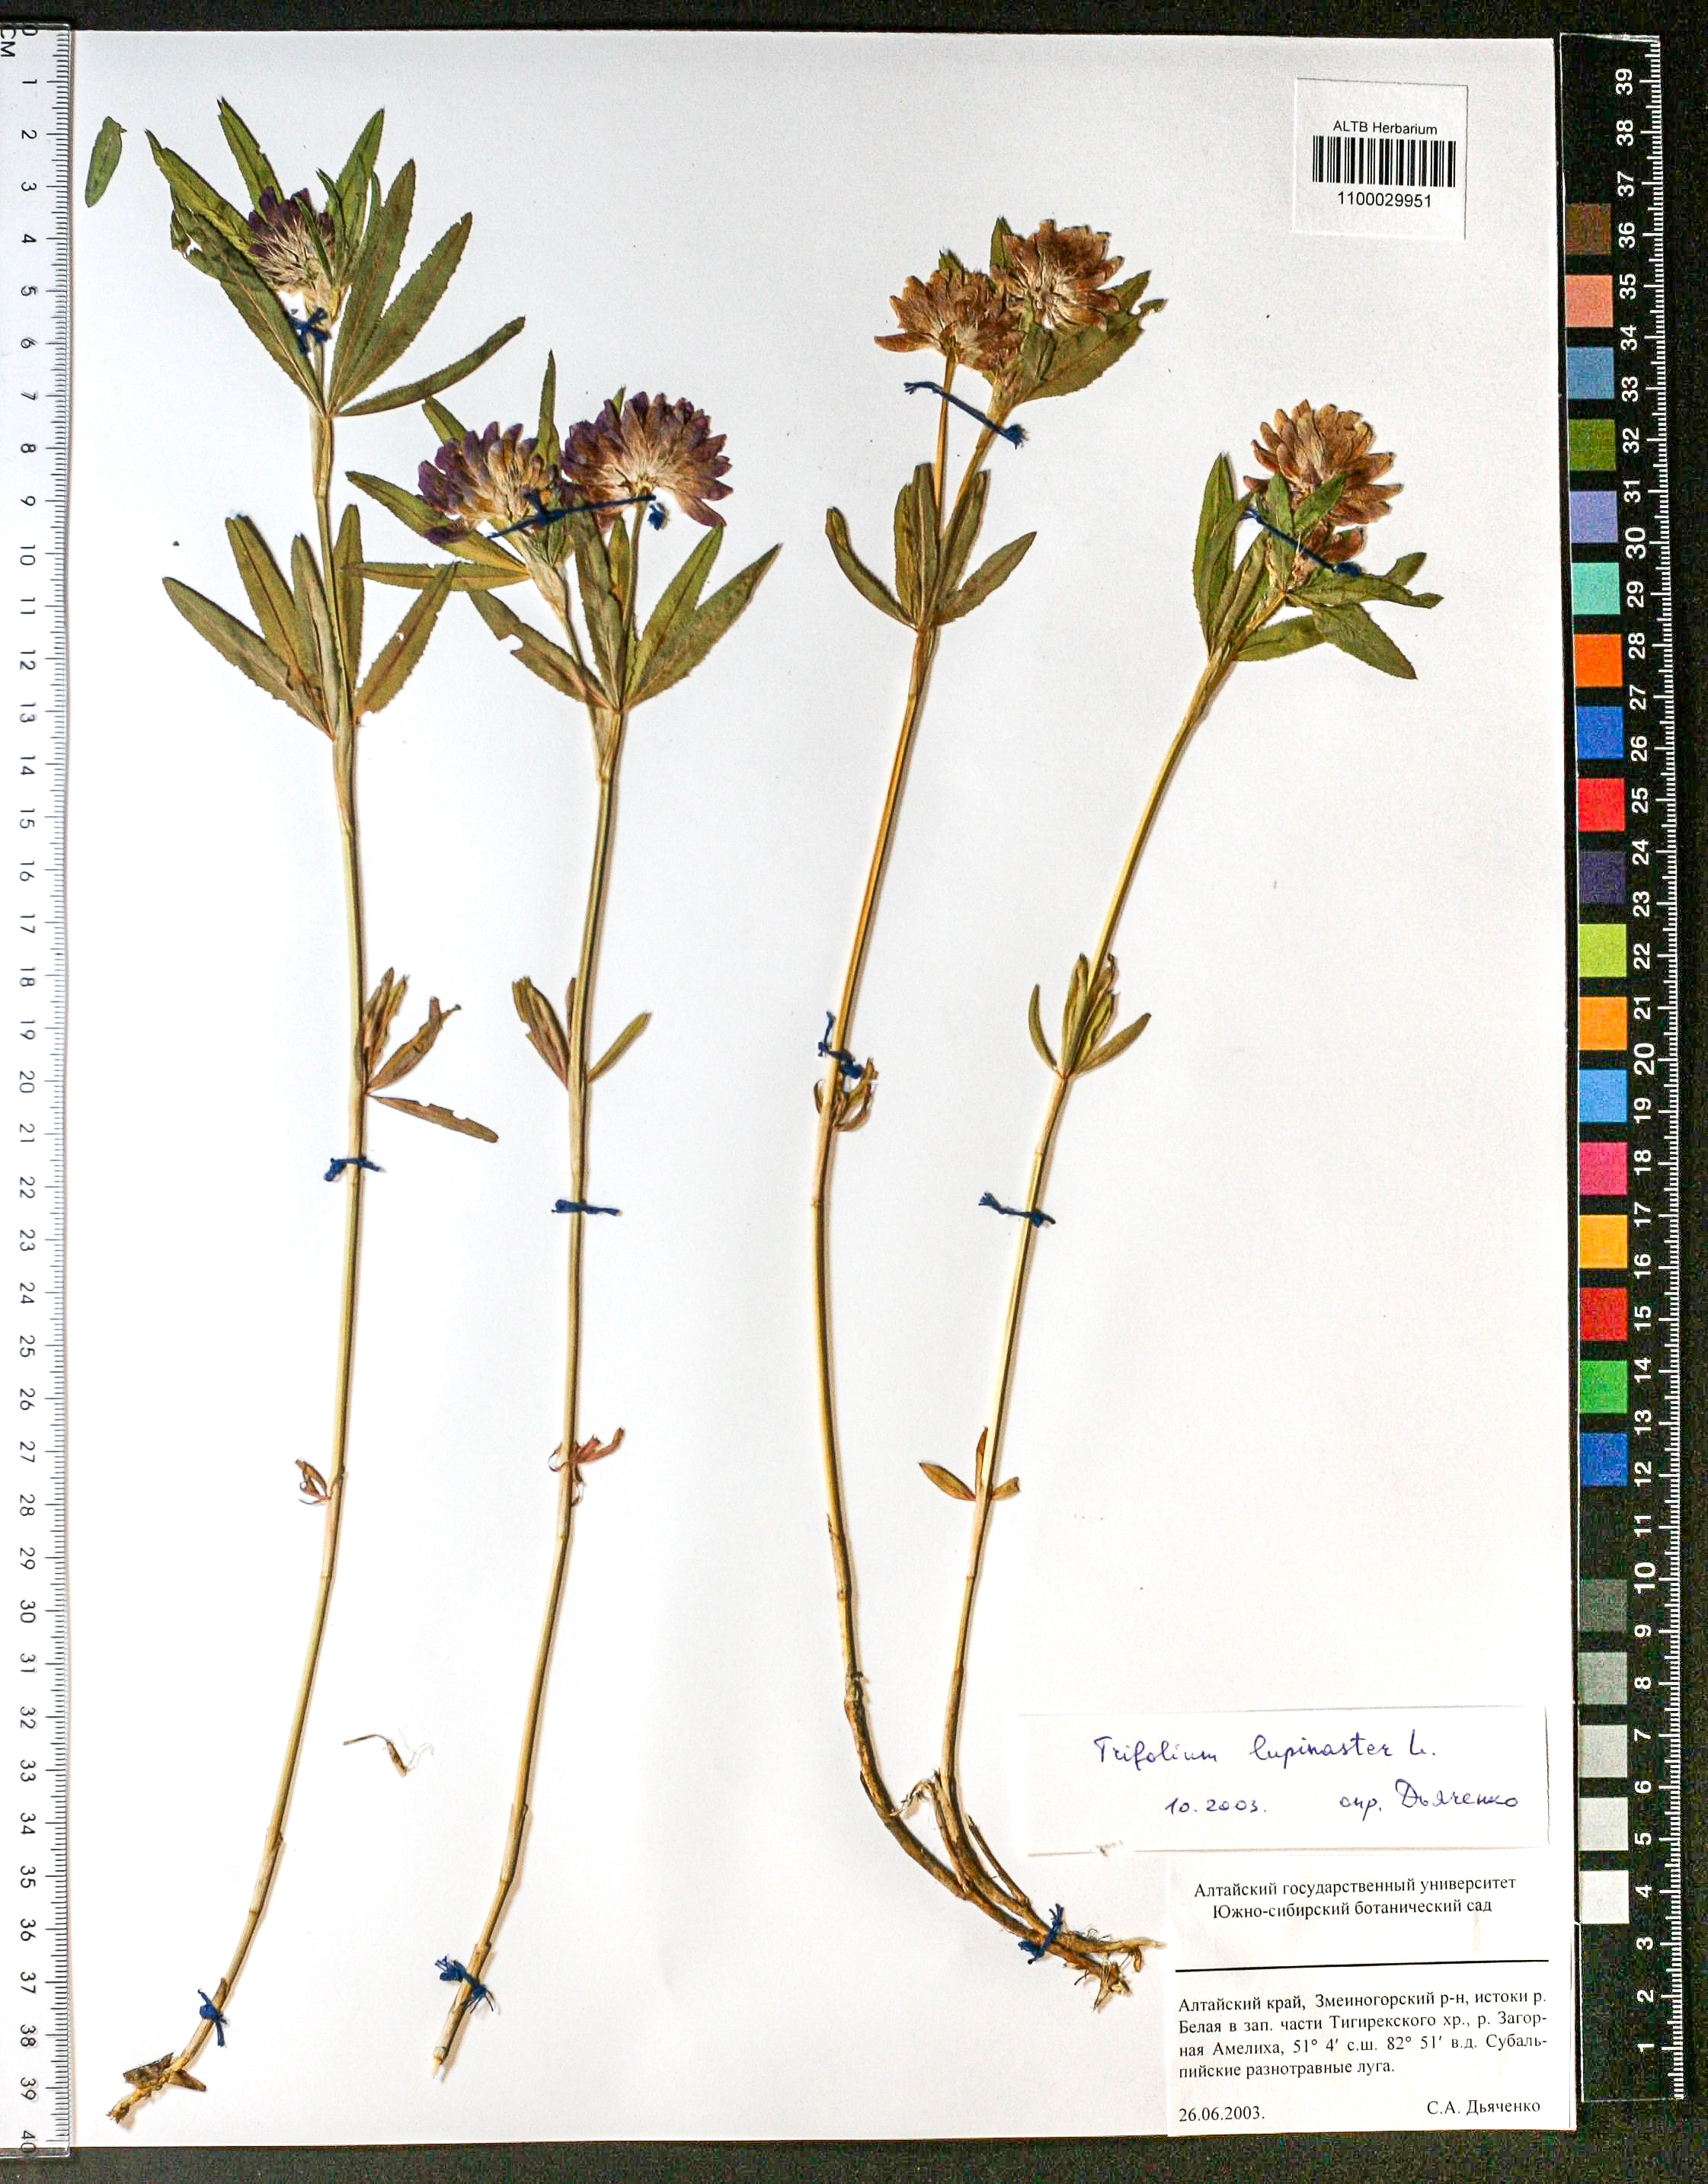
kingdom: Plantae
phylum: Tracheophyta
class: Magnoliopsida
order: Fabales
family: Fabaceae
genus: Trifolium
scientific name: Trifolium lupinaster
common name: Lupine clover
